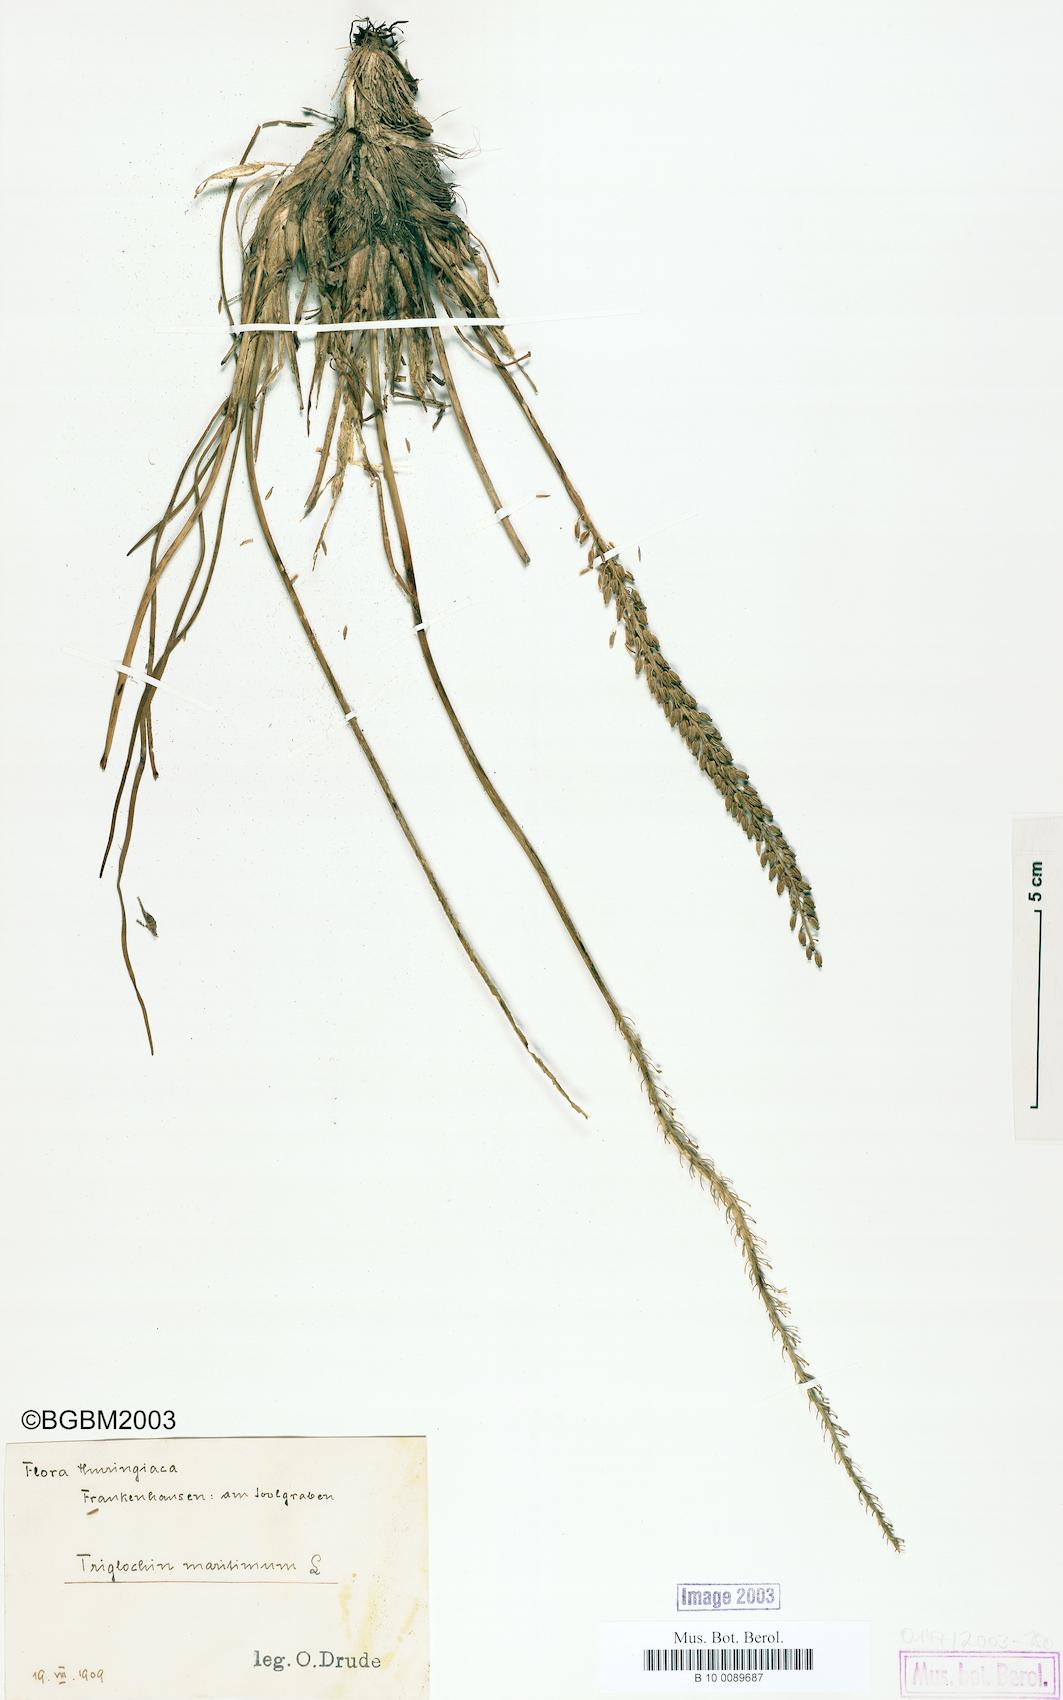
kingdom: Plantae
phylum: Tracheophyta
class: Liliopsida
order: Alismatales
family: Juncaginaceae
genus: Triglochin
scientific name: Triglochin maritima
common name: Sea arrowgrass
